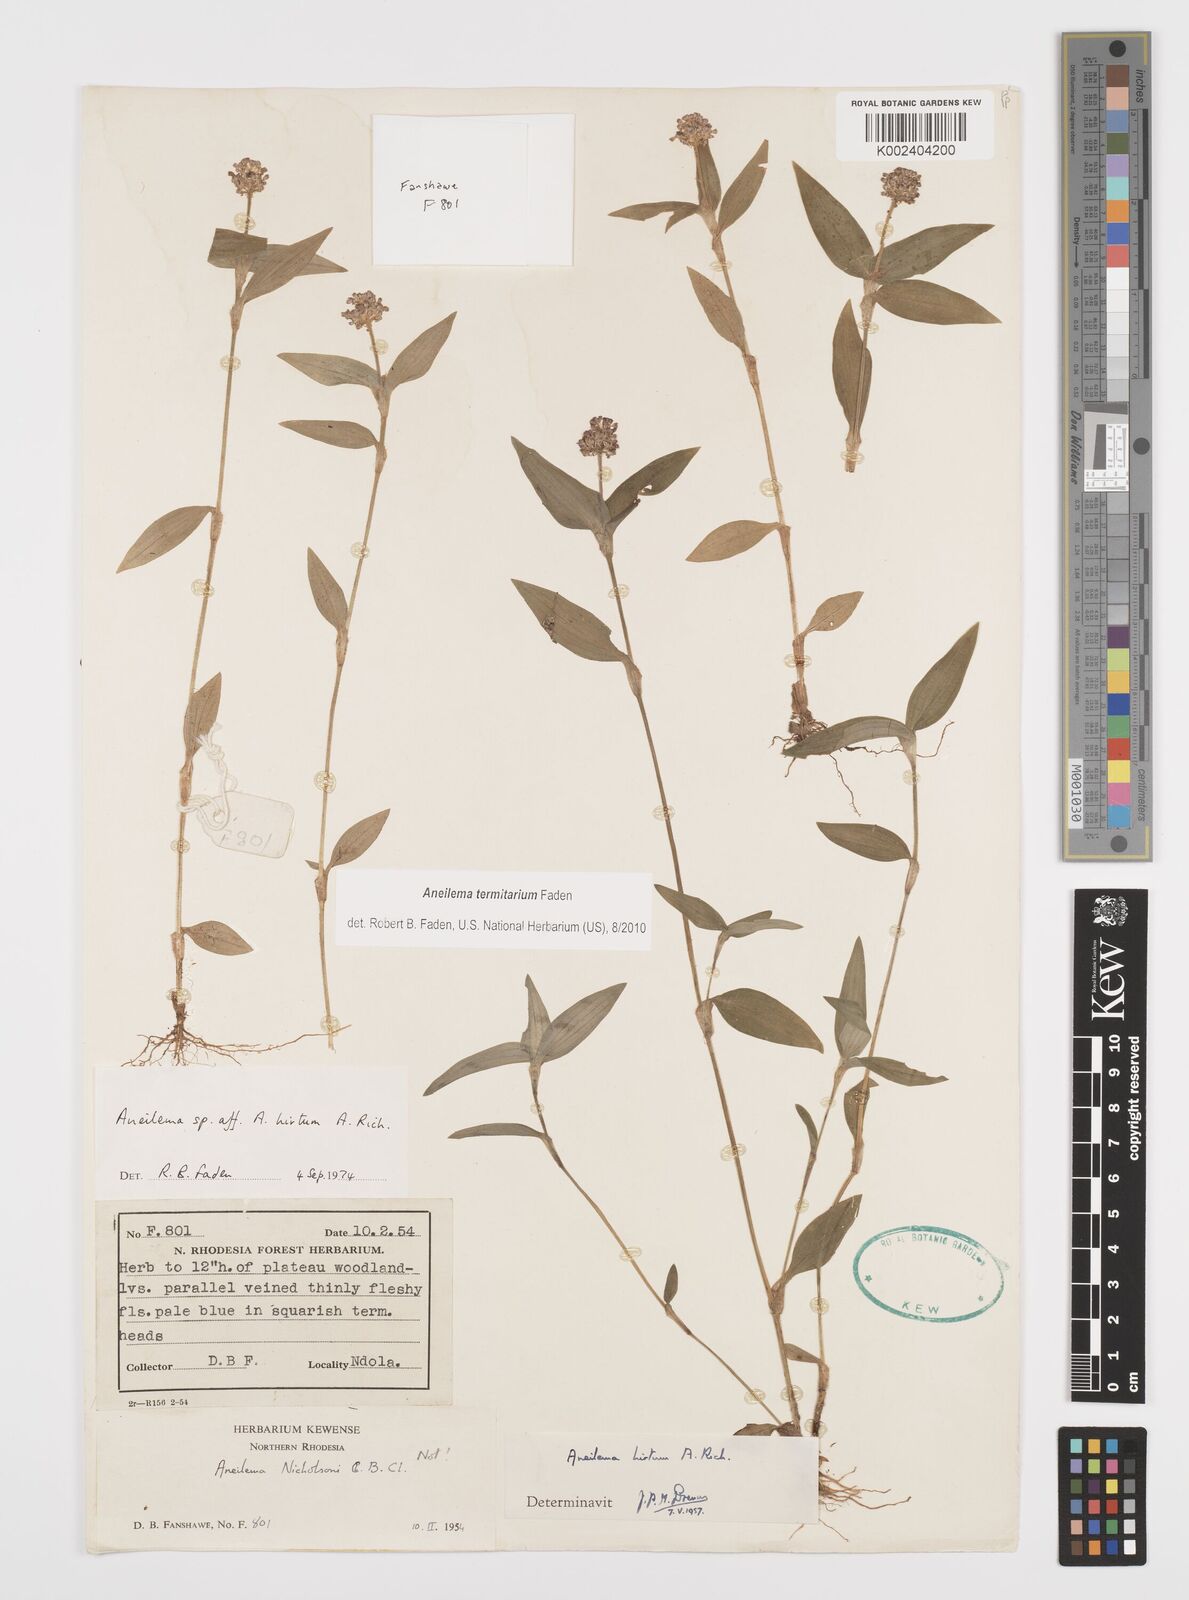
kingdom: Plantae
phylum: Tracheophyta
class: Liliopsida
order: Commelinales
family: Commelinaceae
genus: Aneilema
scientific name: Aneilema termitarium
